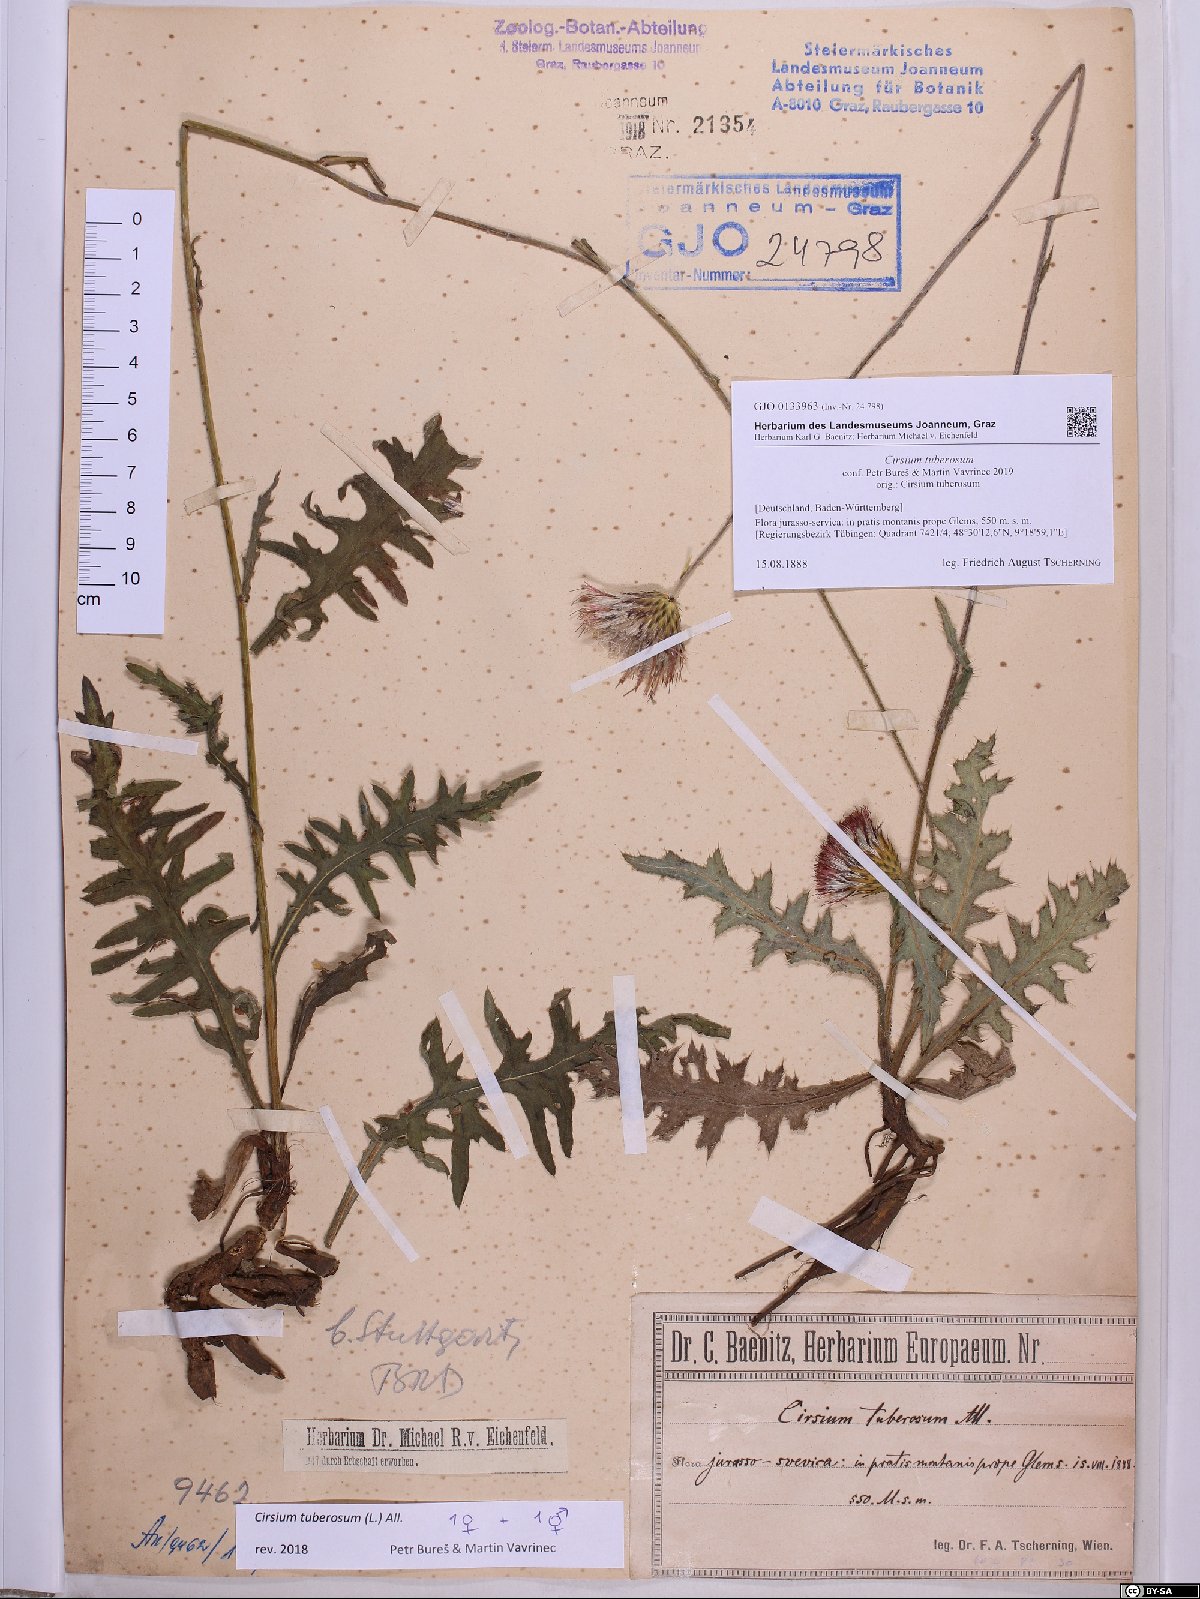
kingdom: Plantae
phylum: Tracheophyta
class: Magnoliopsida
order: Asterales
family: Asteraceae
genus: Cirsium
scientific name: Cirsium tuberosum
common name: Tuberous thistle
